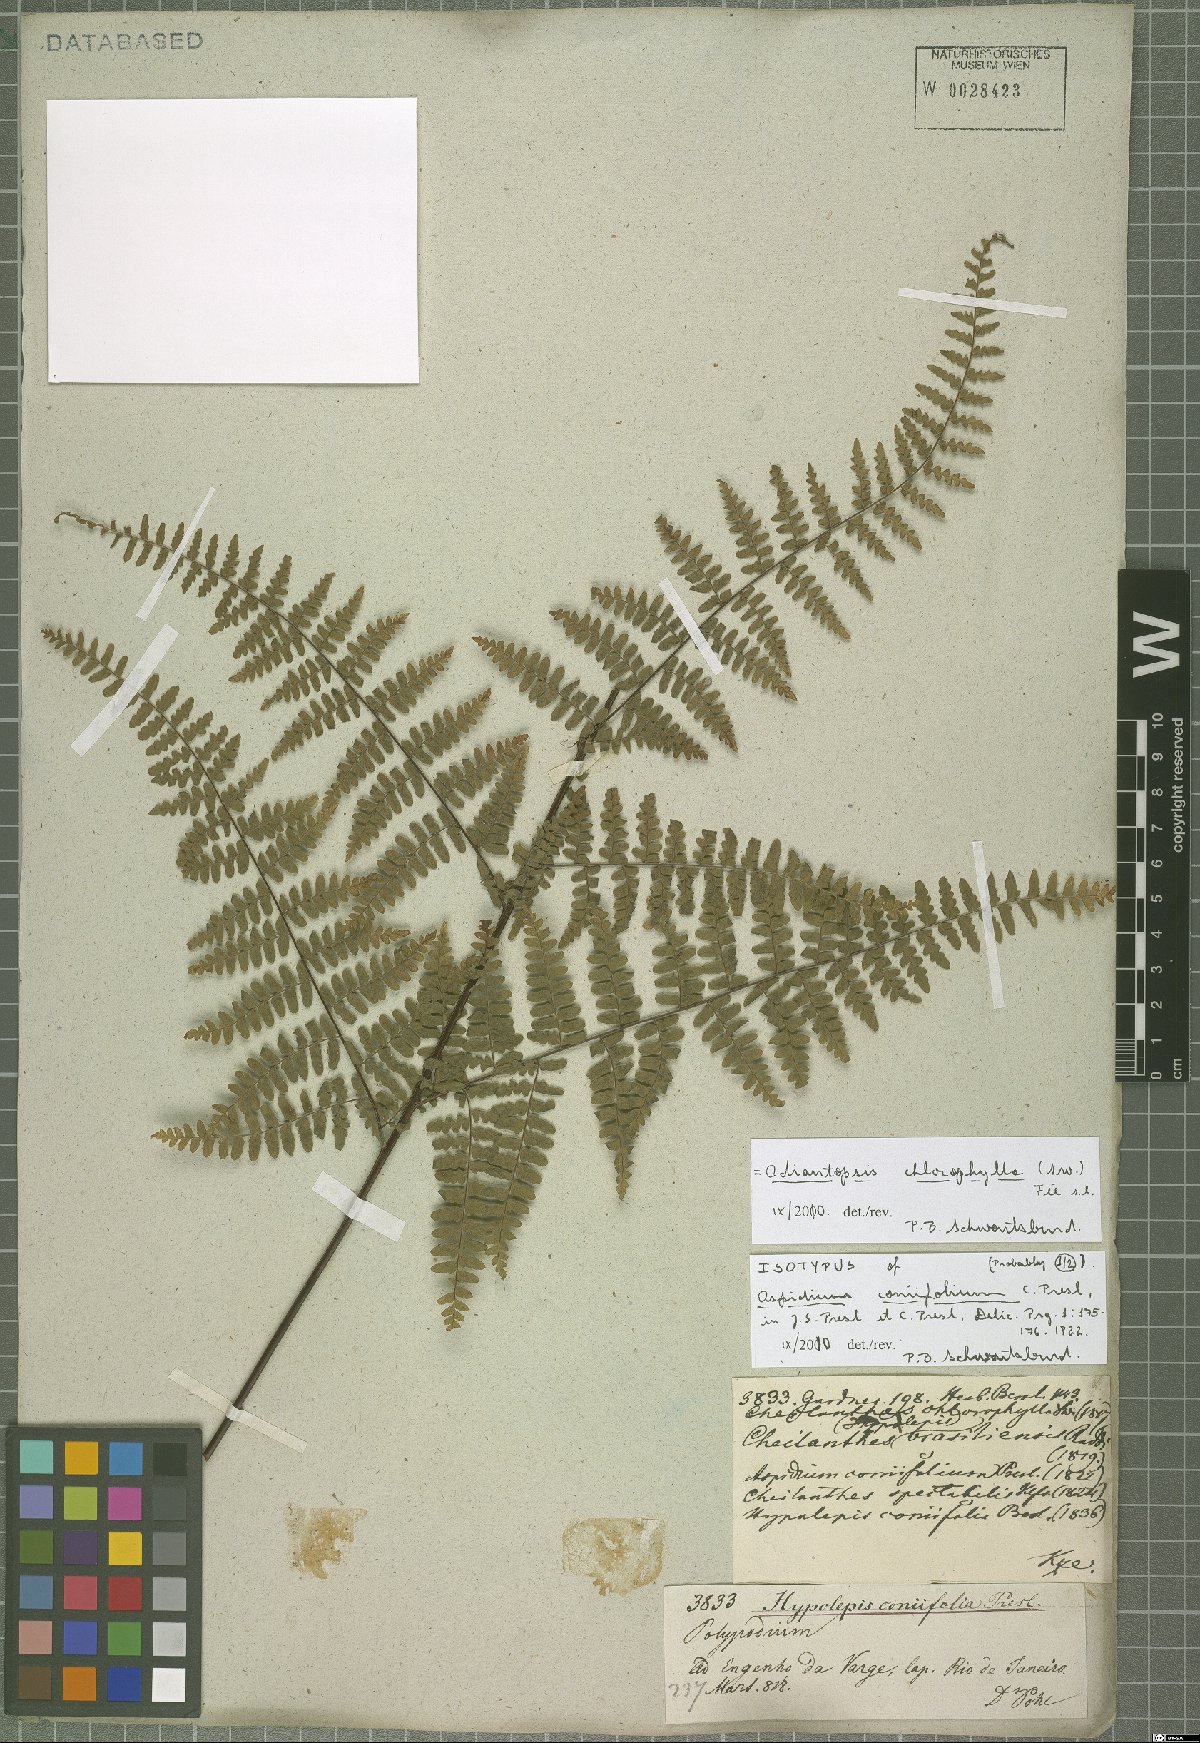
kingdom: Plantae
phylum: Tracheophyta
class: Polypodiopsida
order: Polypodiales
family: Pteridaceae
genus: Adiantopsis
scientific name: Adiantopsis chlorophylla
